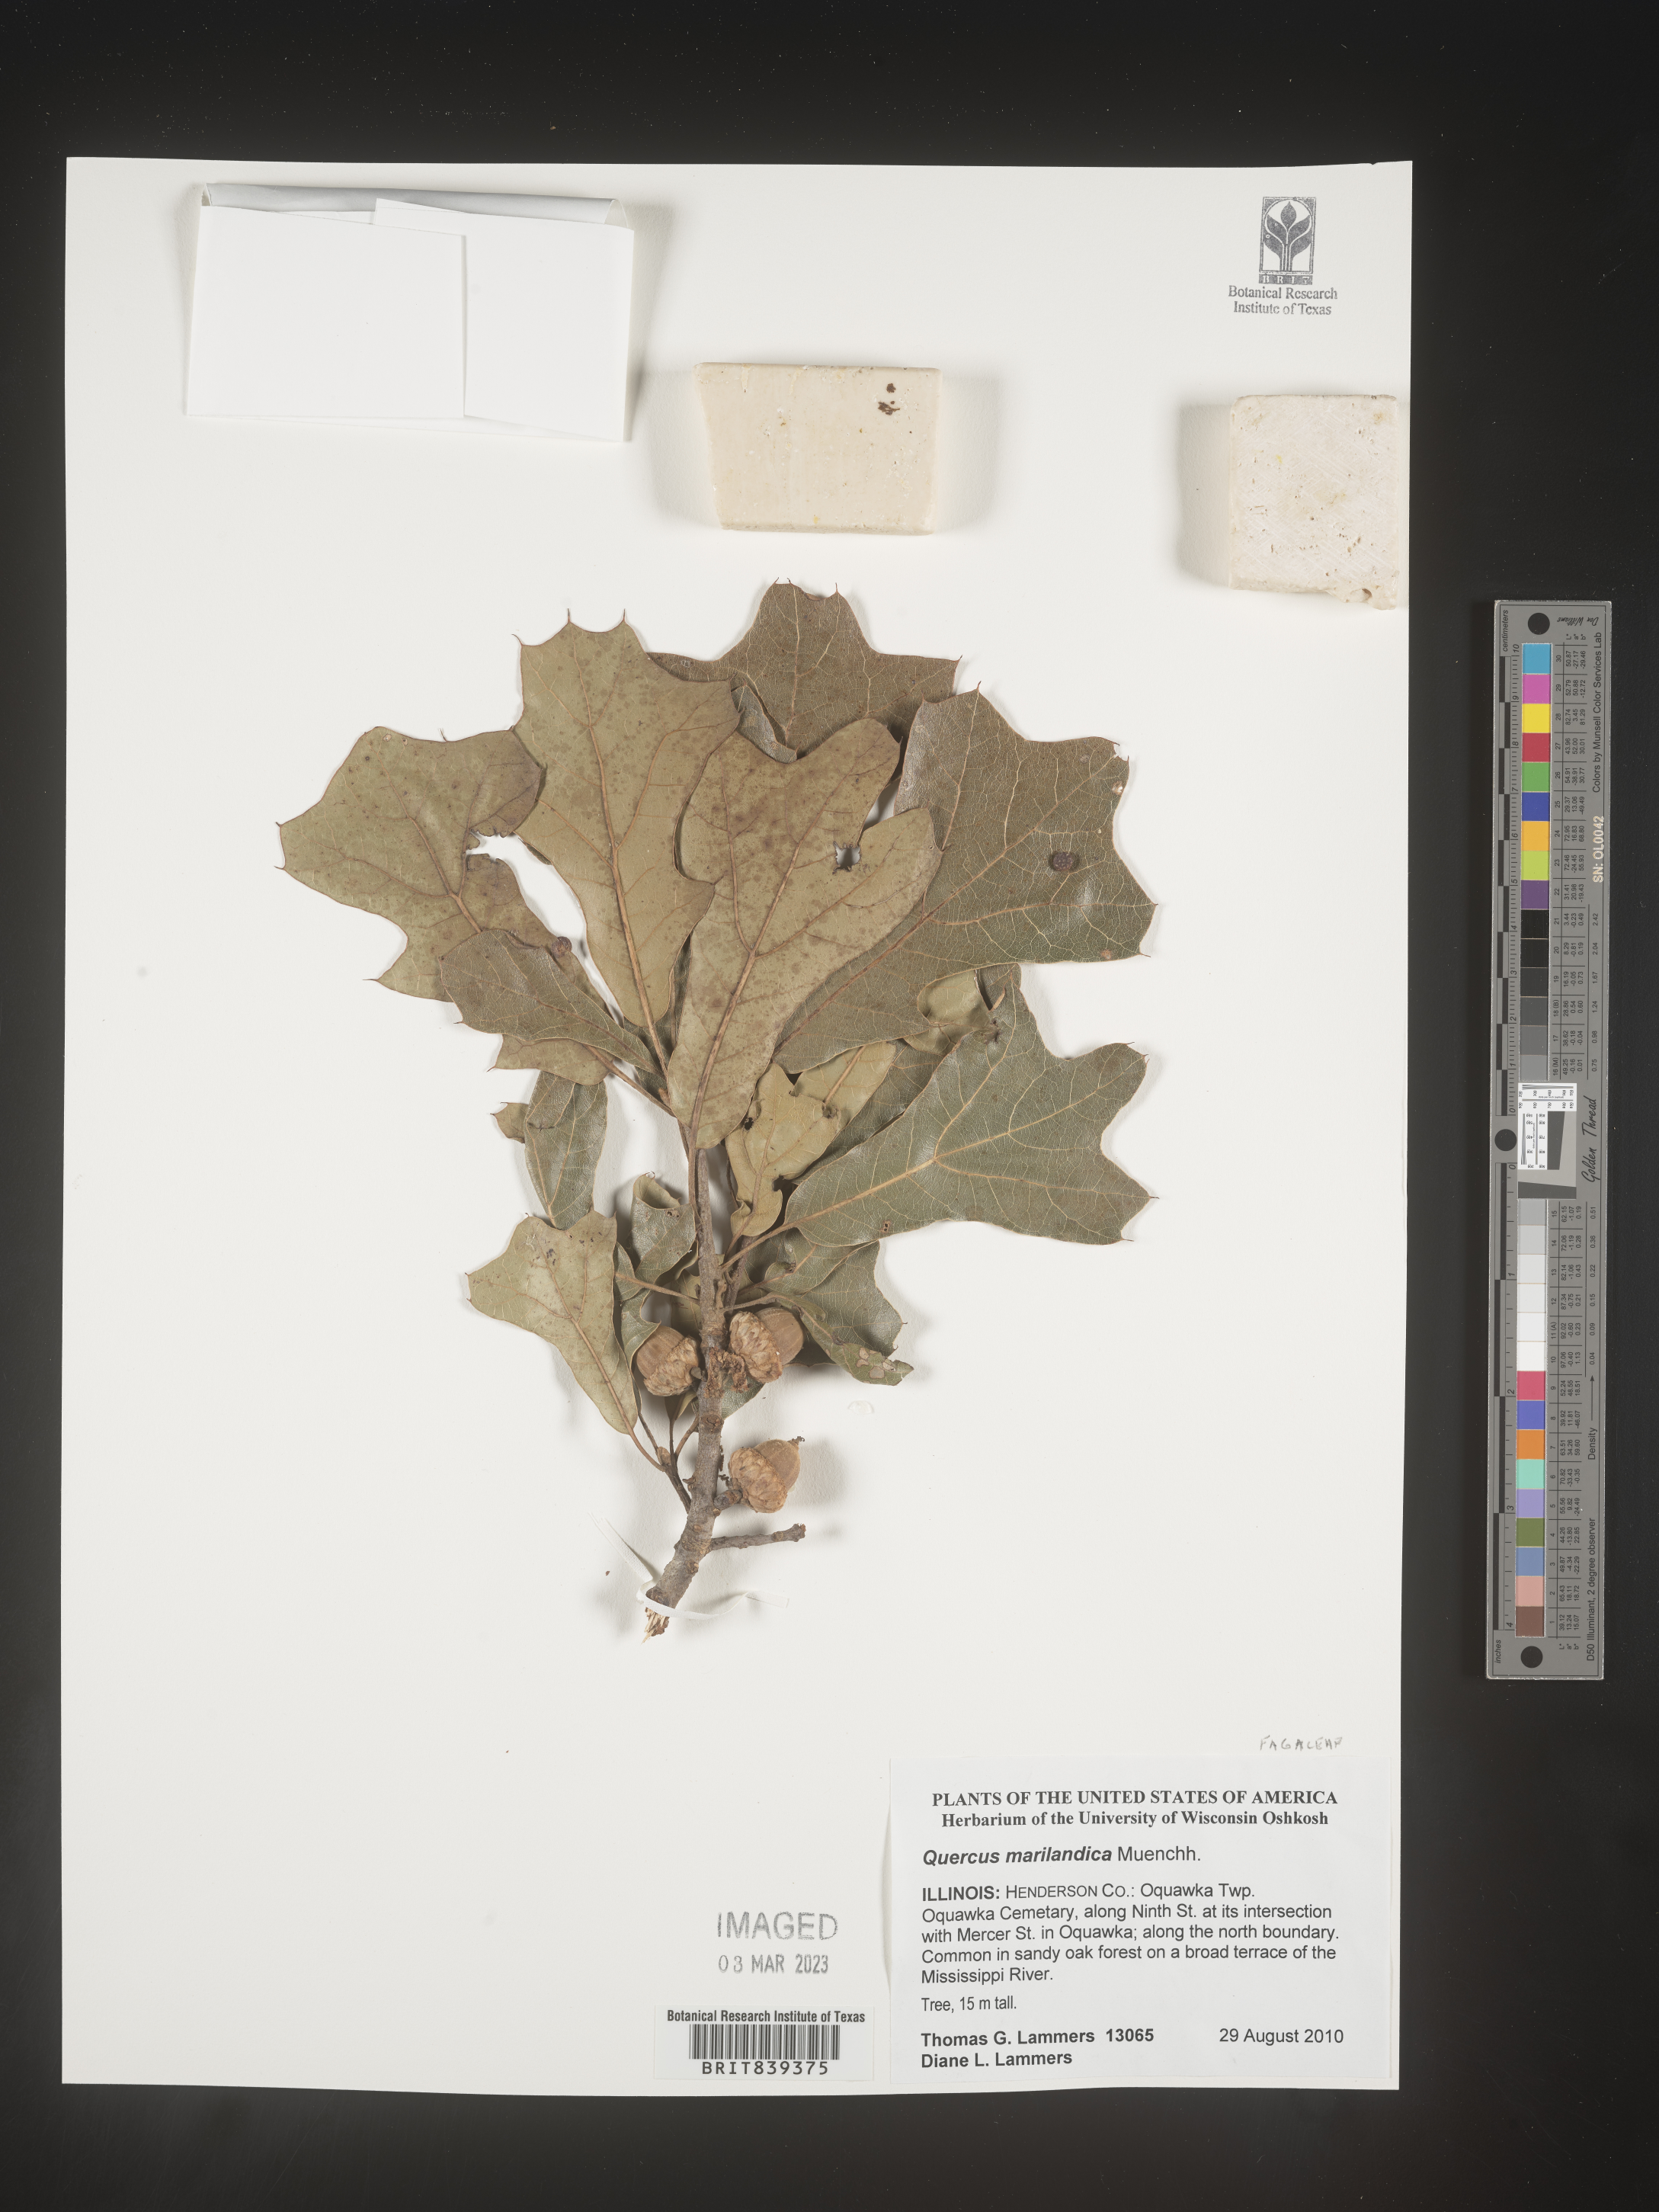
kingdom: Plantae
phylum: Tracheophyta
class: Magnoliopsida
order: Fagales
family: Fagaceae
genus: Quercus
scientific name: Quercus marilandica
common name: Blackjack oak
